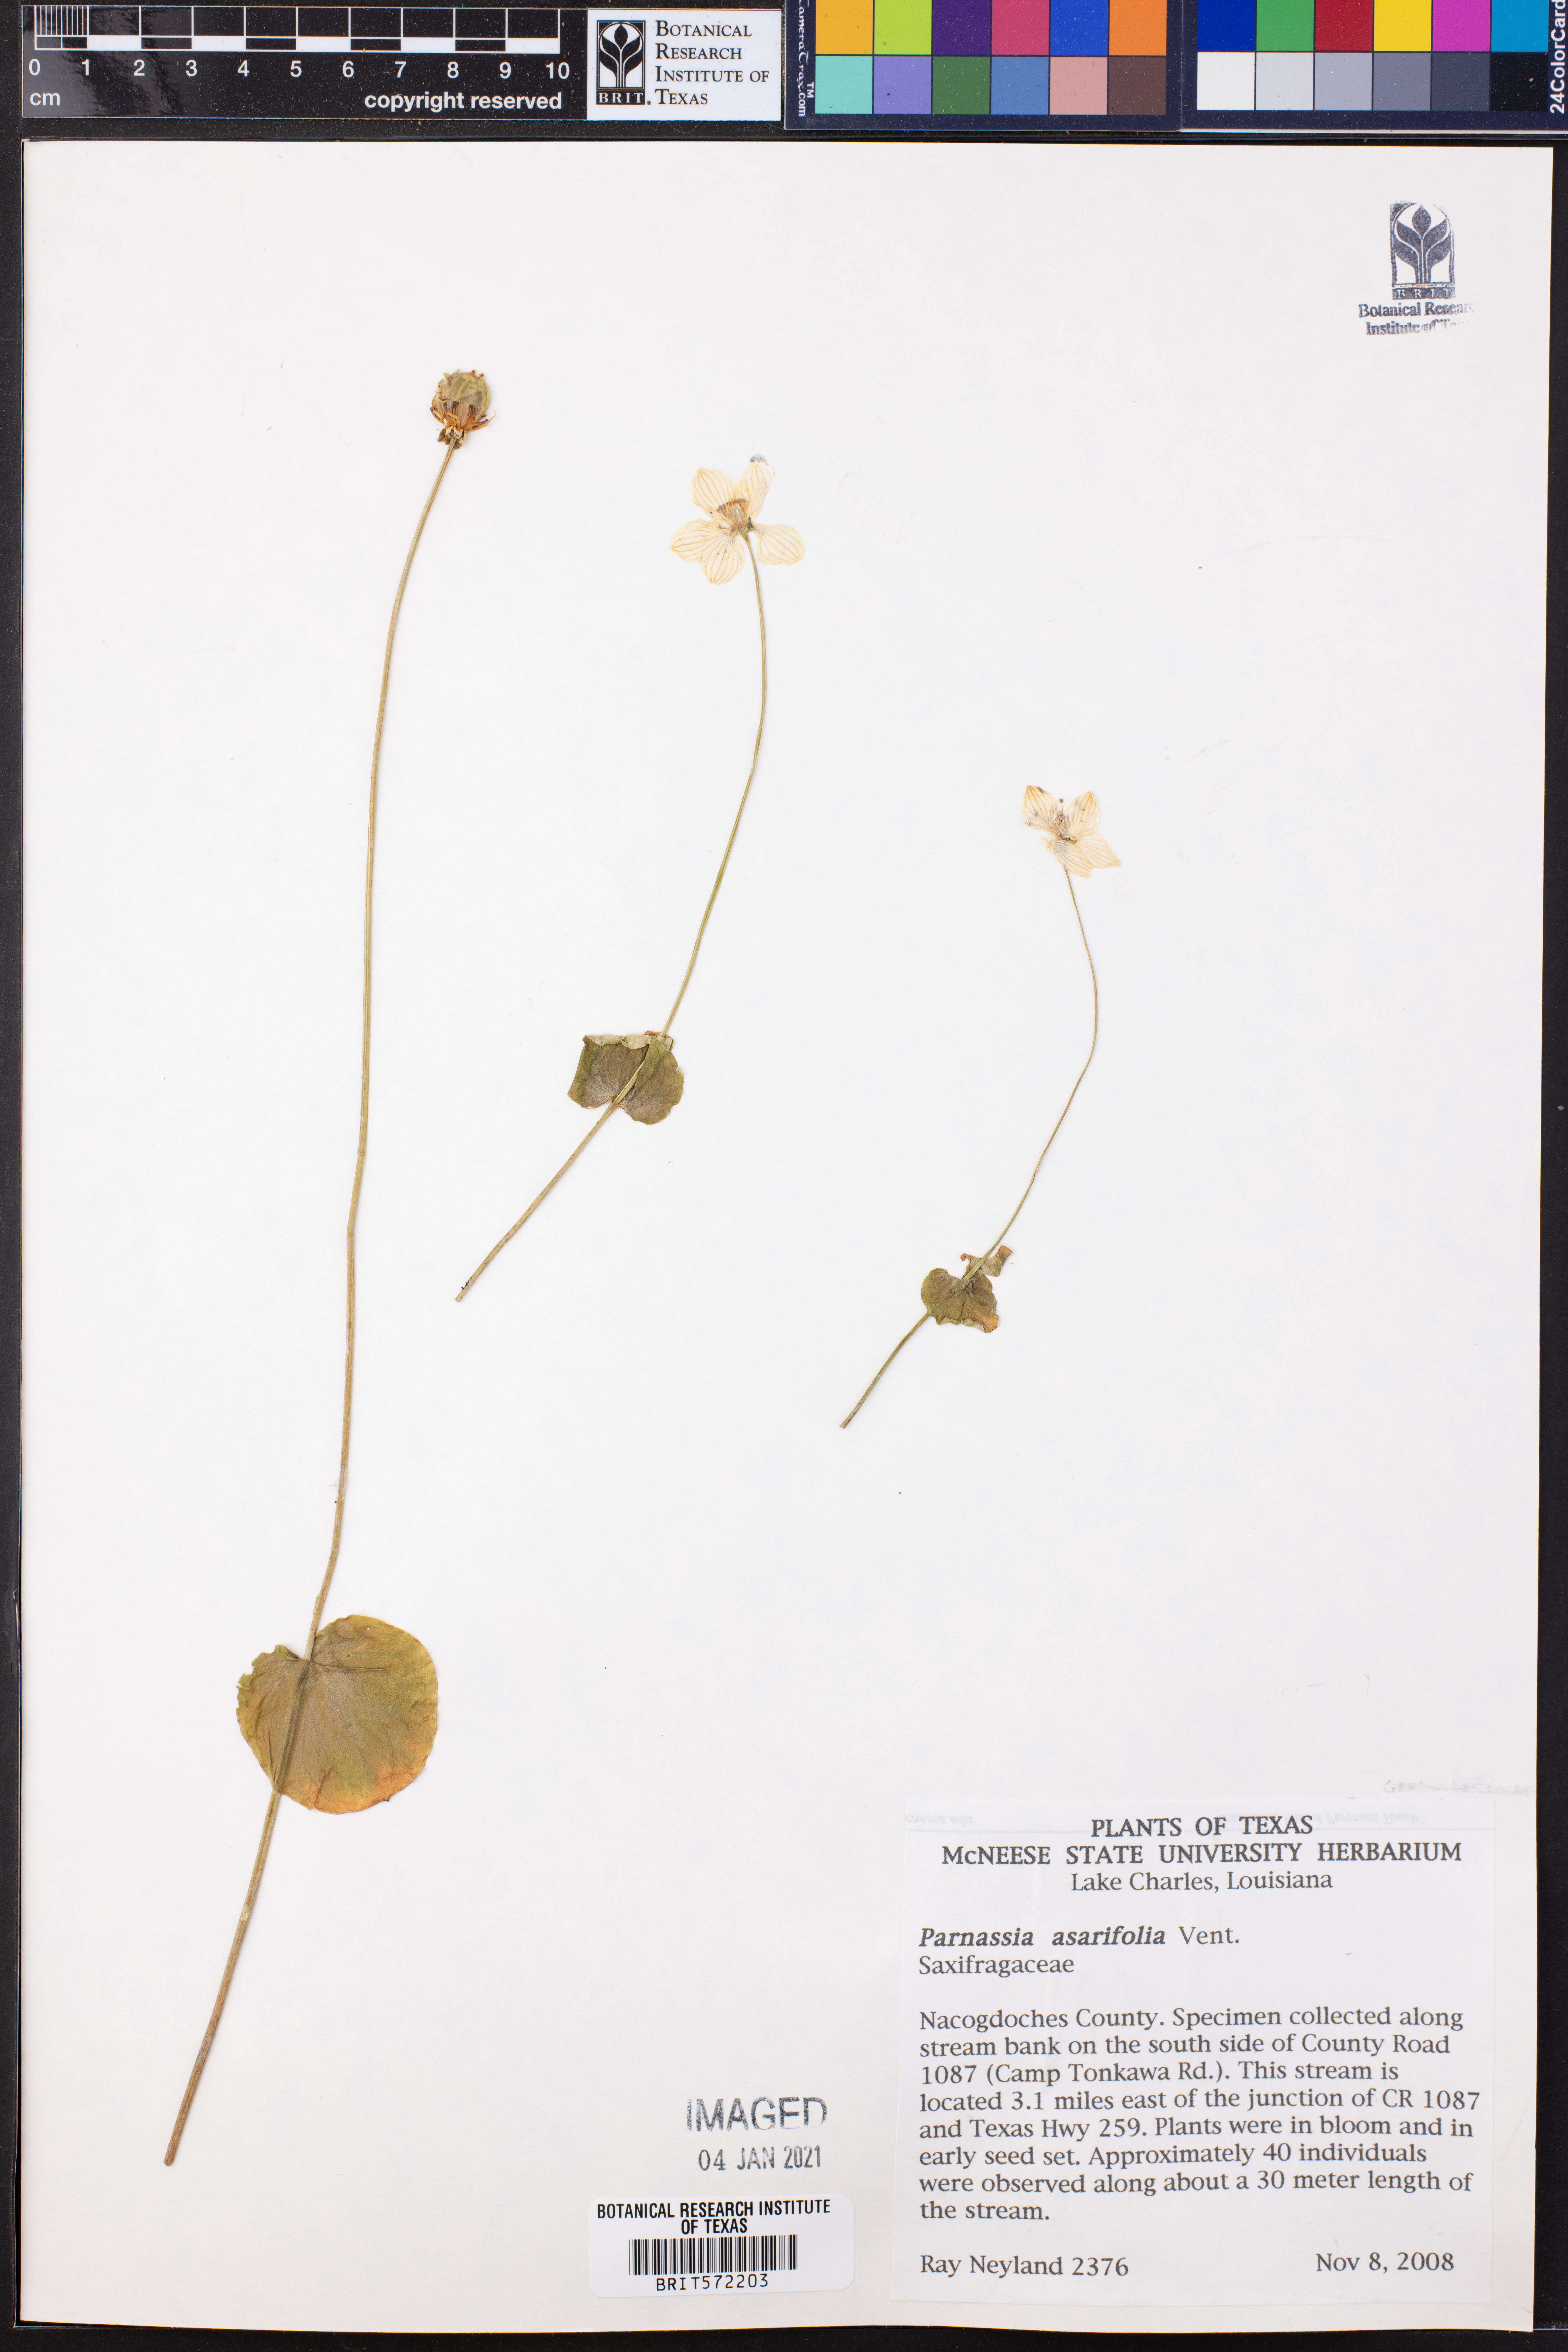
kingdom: Plantae
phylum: Tracheophyta
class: Magnoliopsida
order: Celastrales
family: Parnassiaceae
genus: Parnassia
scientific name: Parnassia asarifolia
